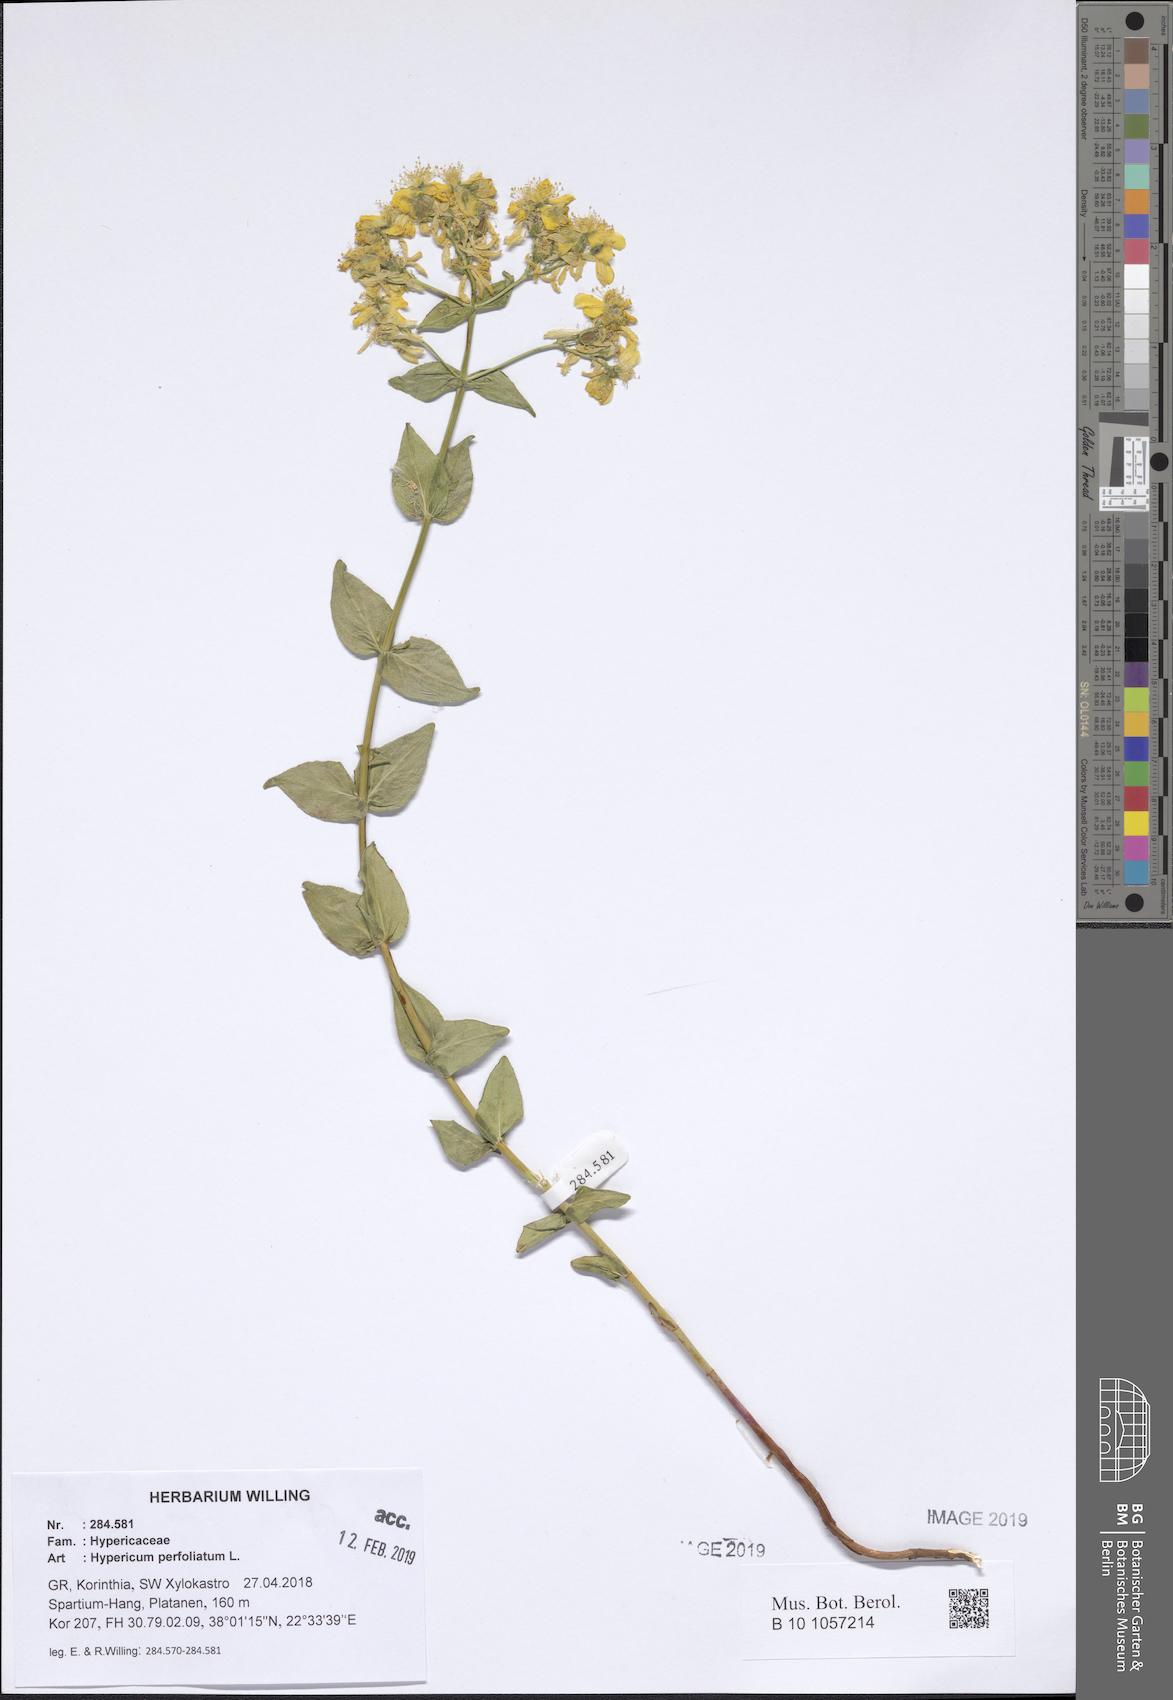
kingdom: Plantae
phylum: Tracheophyta
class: Magnoliopsida
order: Malpighiales
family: Hypericaceae
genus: Hypericum
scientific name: Hypericum perfoliatum
